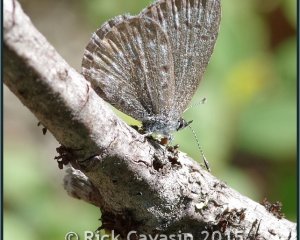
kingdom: Animalia
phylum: Arthropoda
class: Insecta
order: Lepidoptera
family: Lycaenidae
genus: Celastrina
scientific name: Celastrina lucia
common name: Northern Spring Azure
